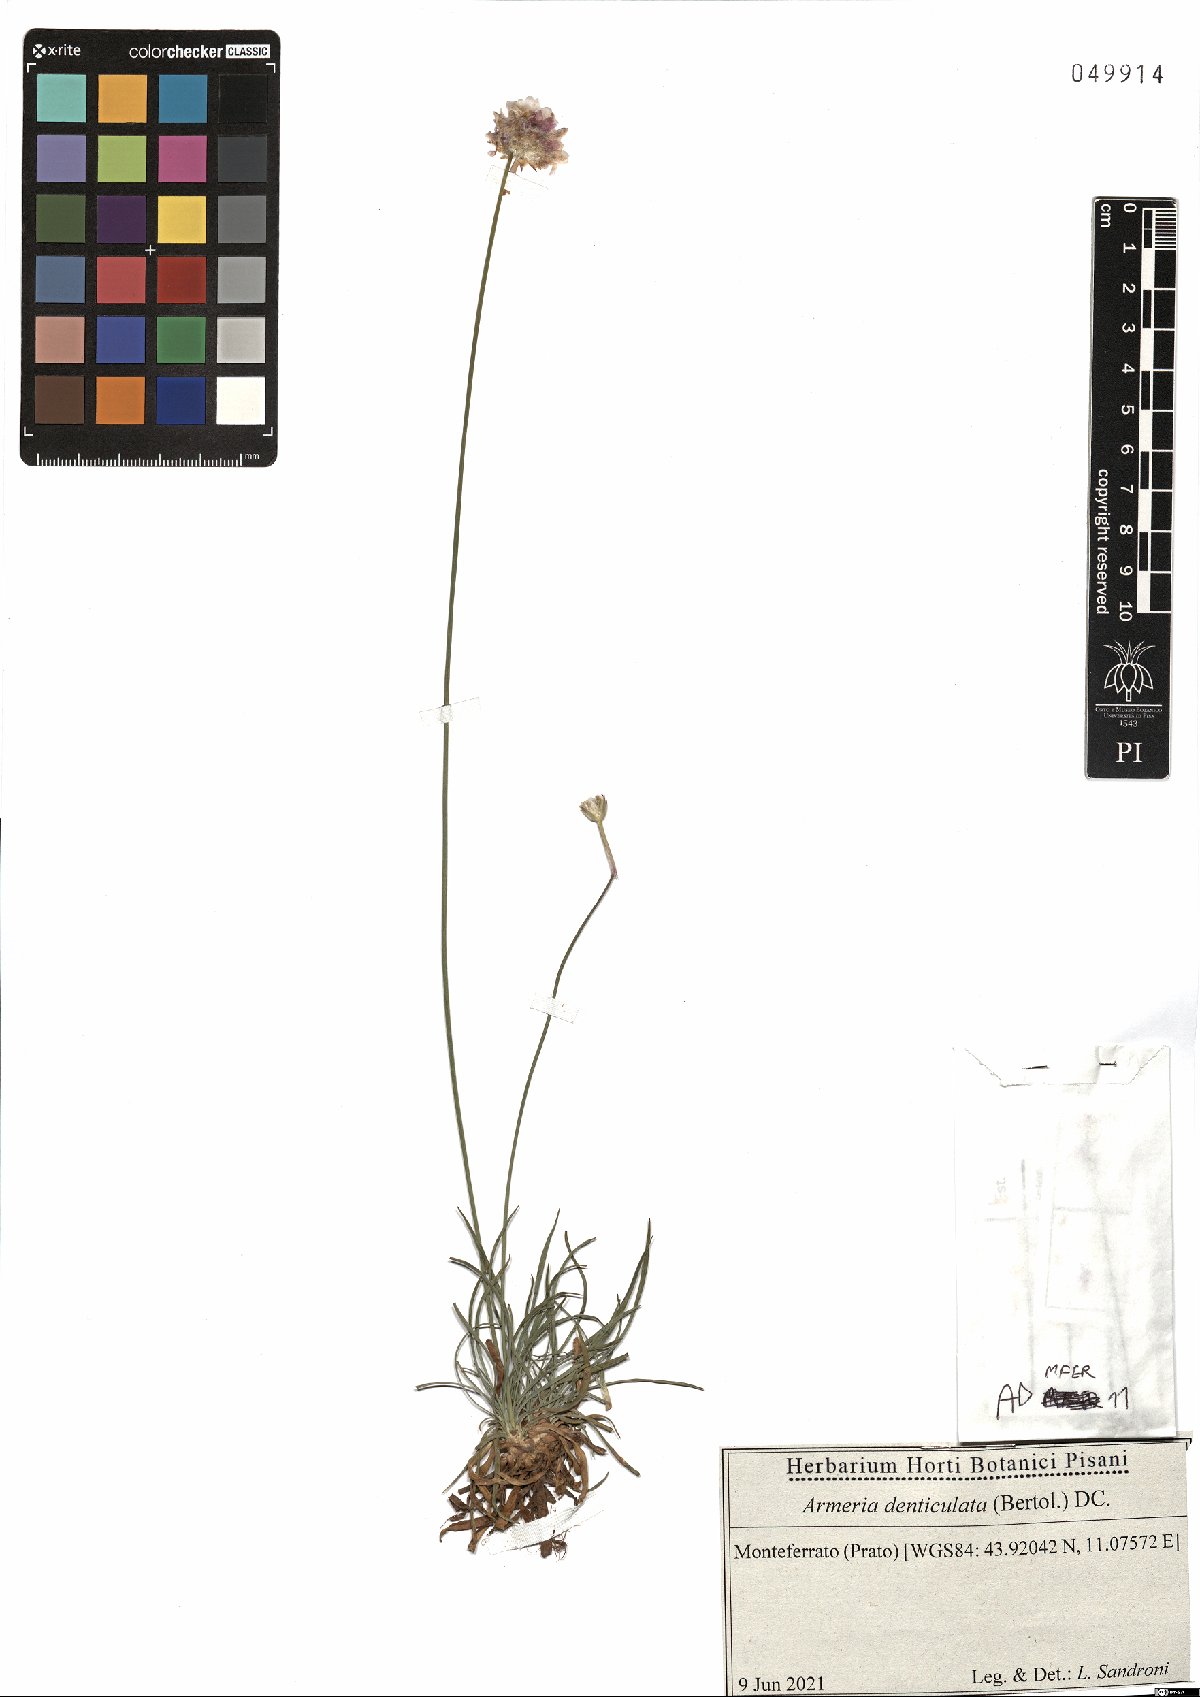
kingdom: Plantae
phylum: Tracheophyta
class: Magnoliopsida
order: Caryophyllales
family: Plumbaginaceae
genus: Armeria
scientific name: Armeria denticulata
